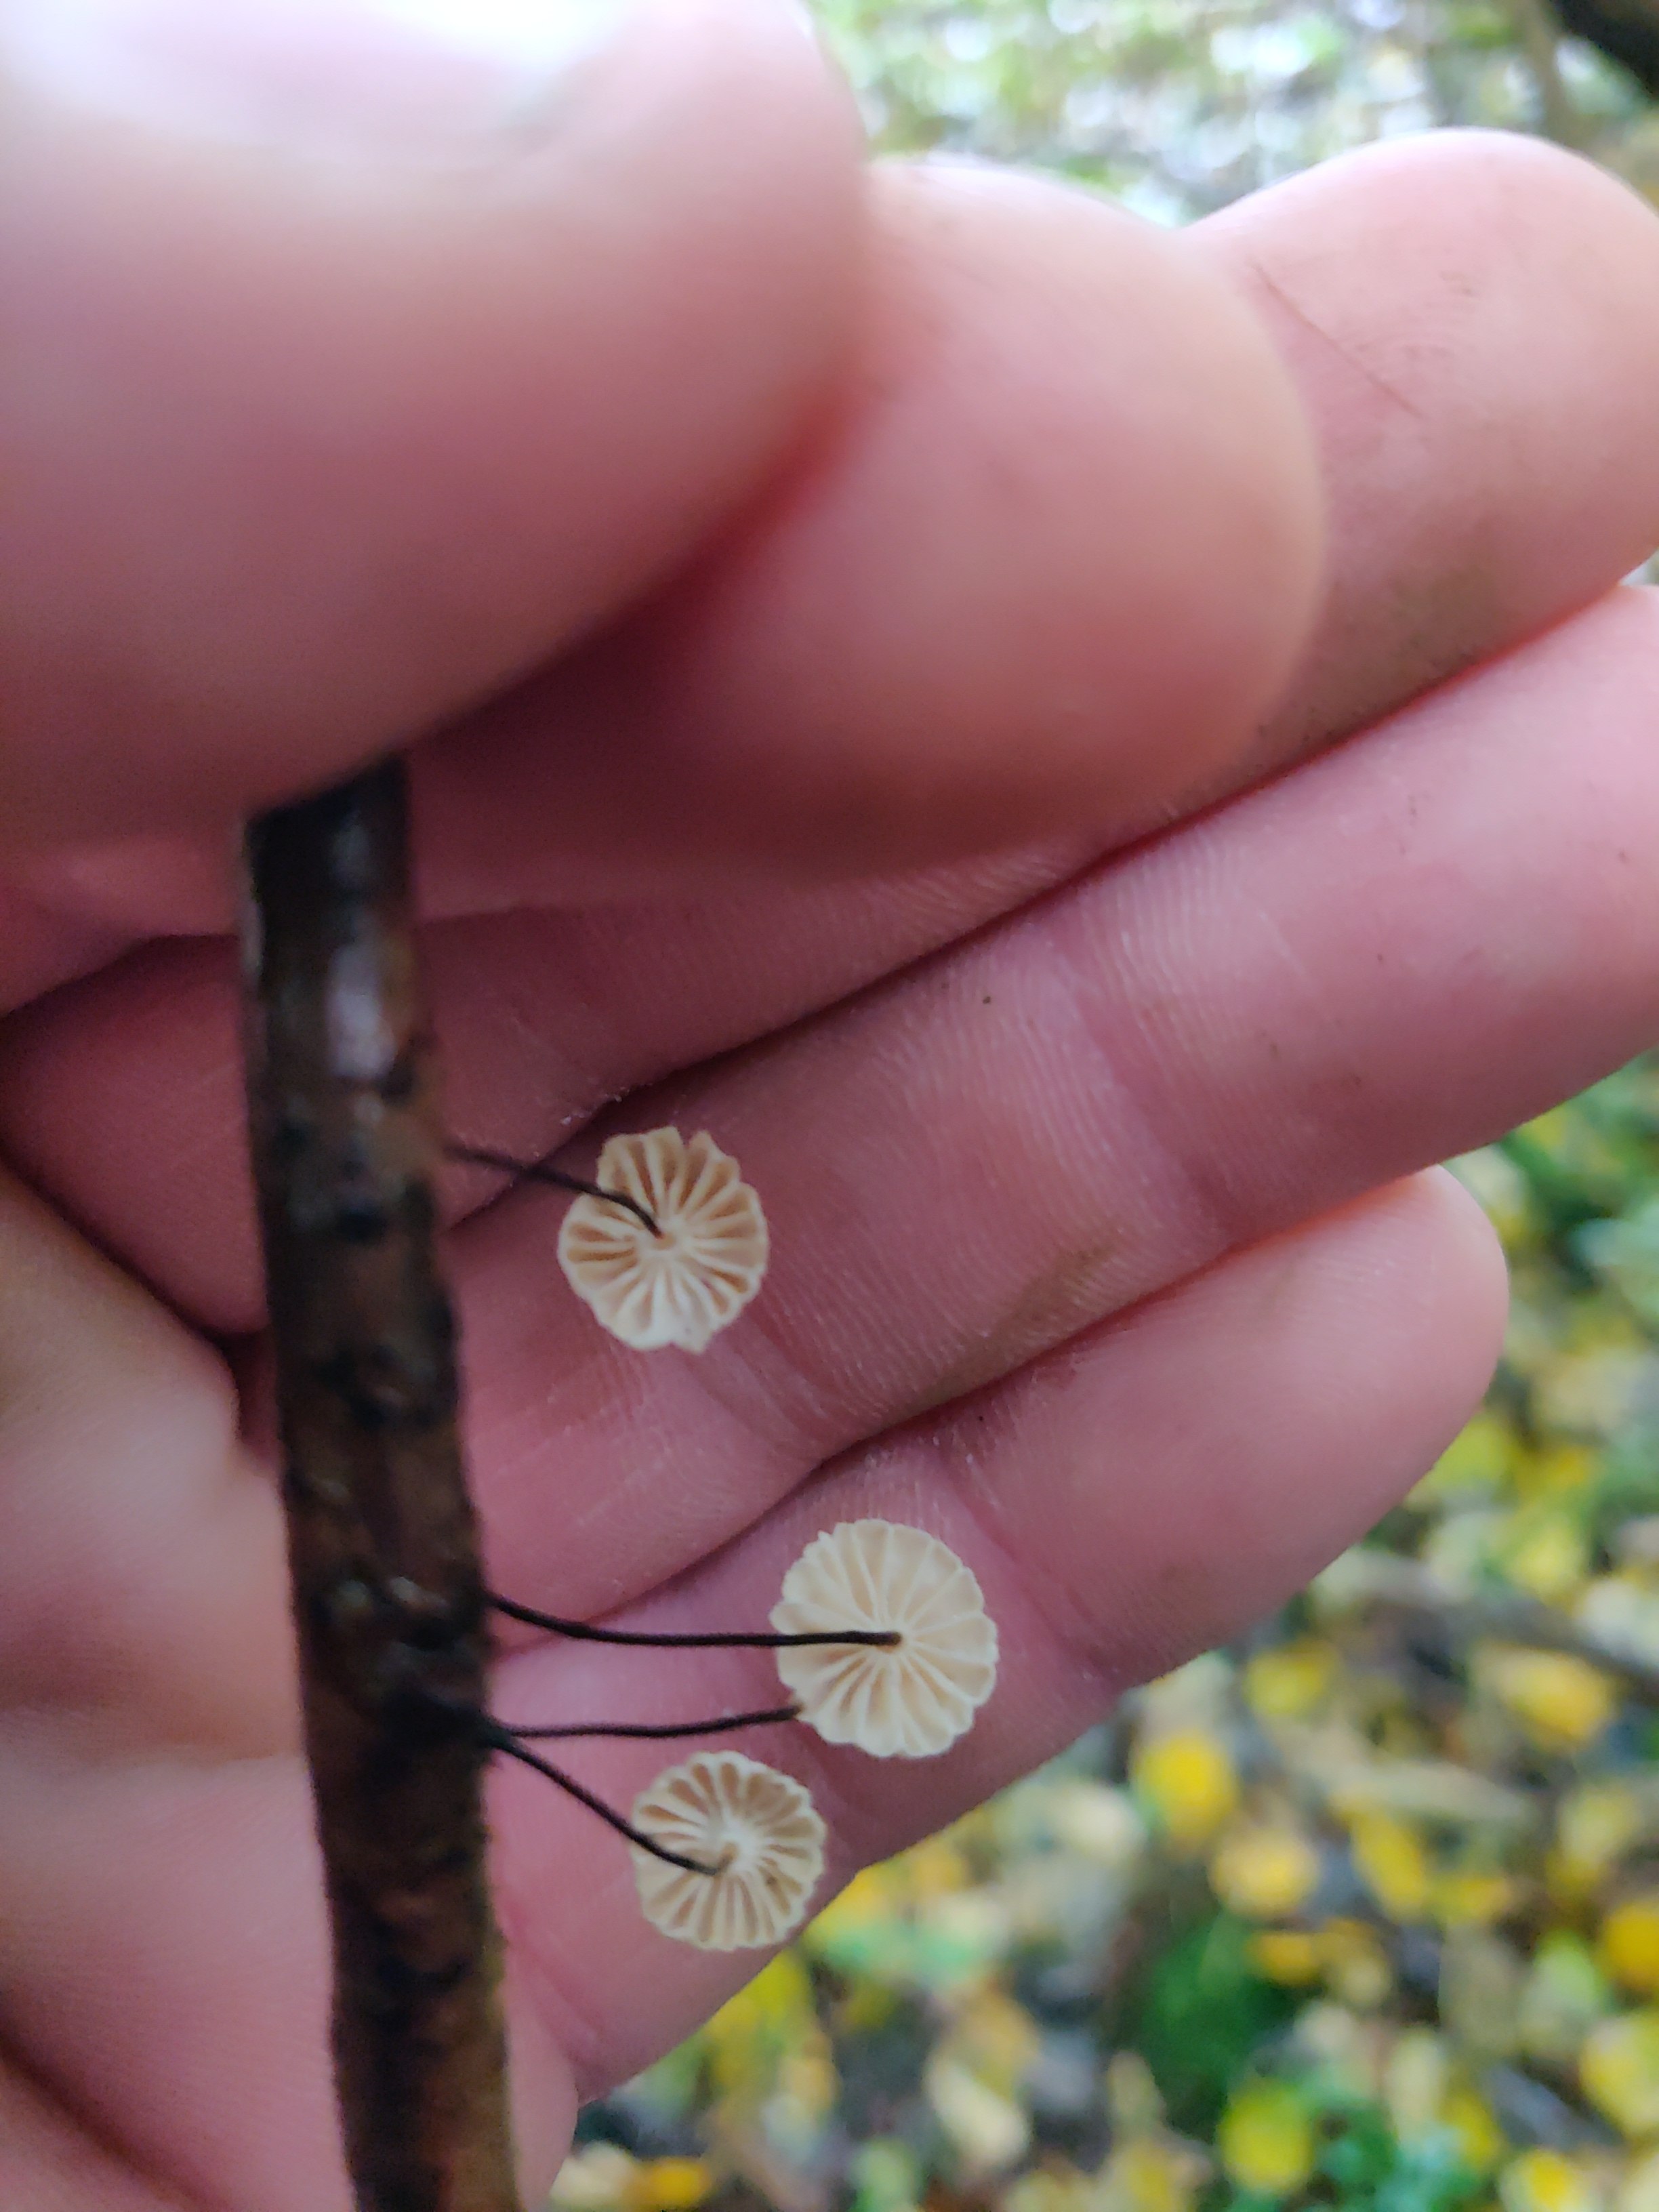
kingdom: Fungi
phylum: Basidiomycota
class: Agaricomycetes
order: Agaricales
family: Marasmiaceae
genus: Marasmius
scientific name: Marasmius rotula
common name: hjul-bruskhat
